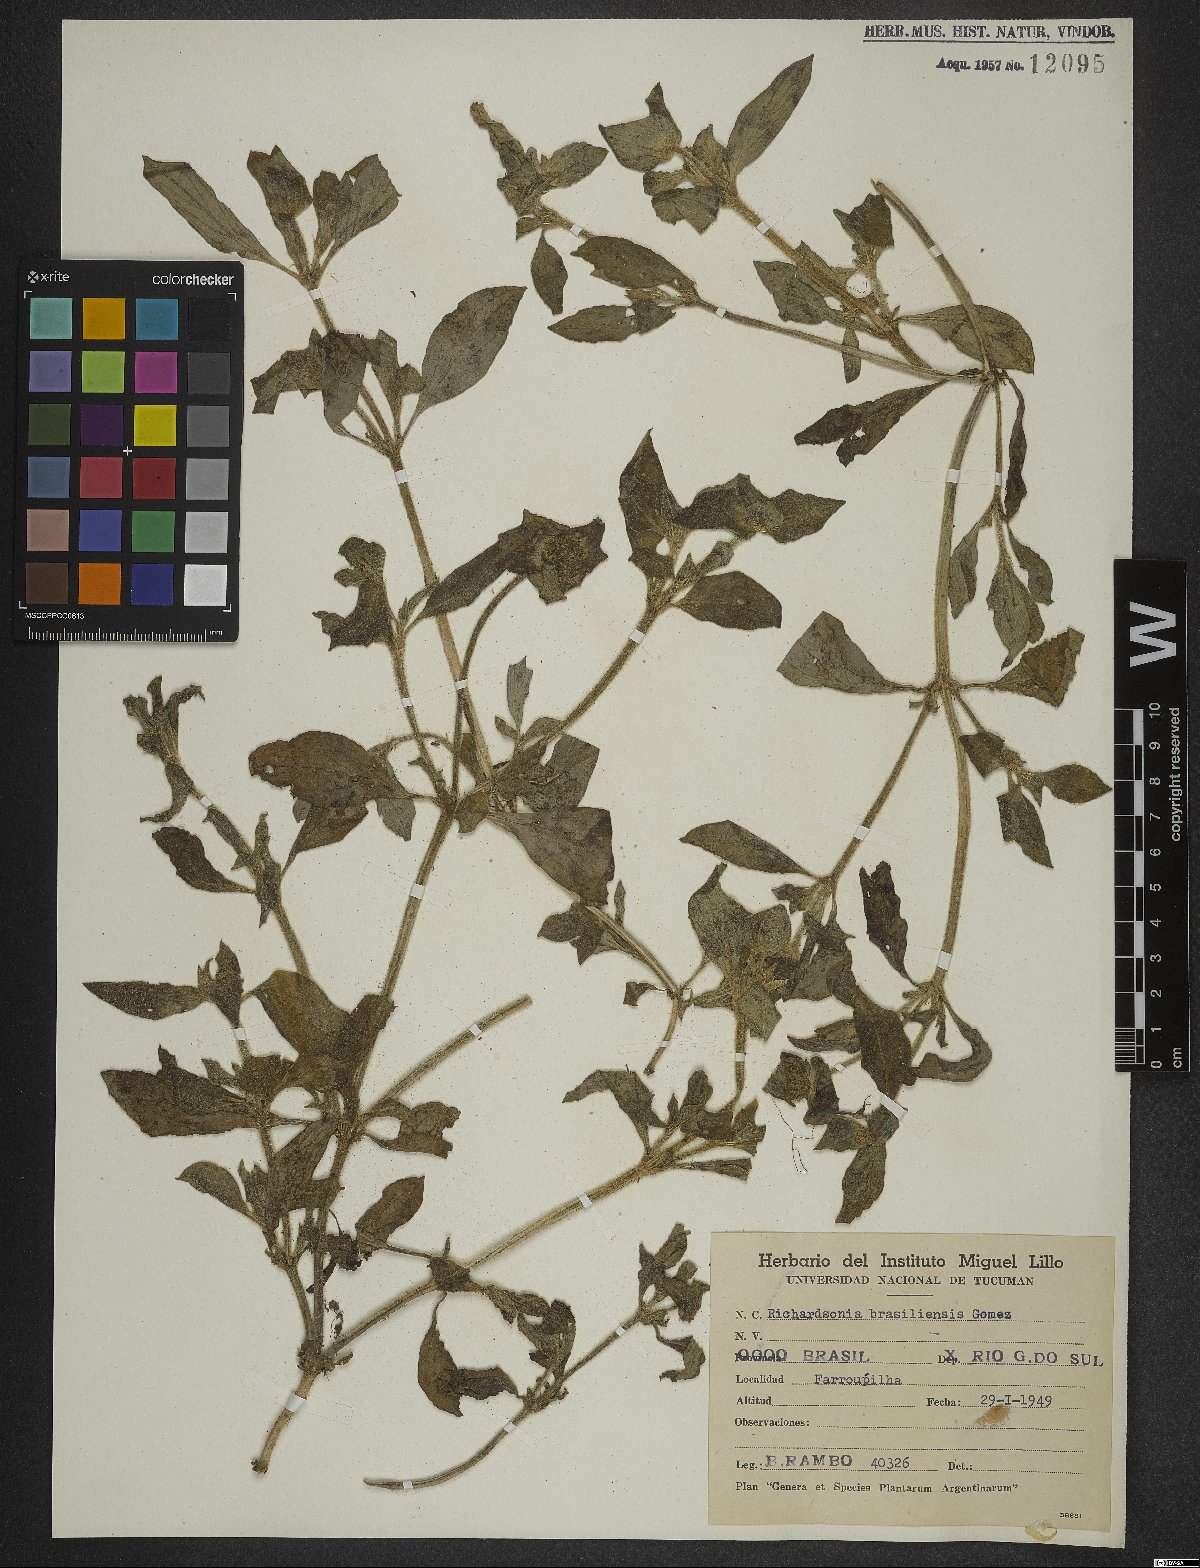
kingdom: Plantae
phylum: Tracheophyta
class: Magnoliopsida
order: Gentianales
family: Rubiaceae
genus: Richardia
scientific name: Richardia brasiliensis
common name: Tropical mexican clover
